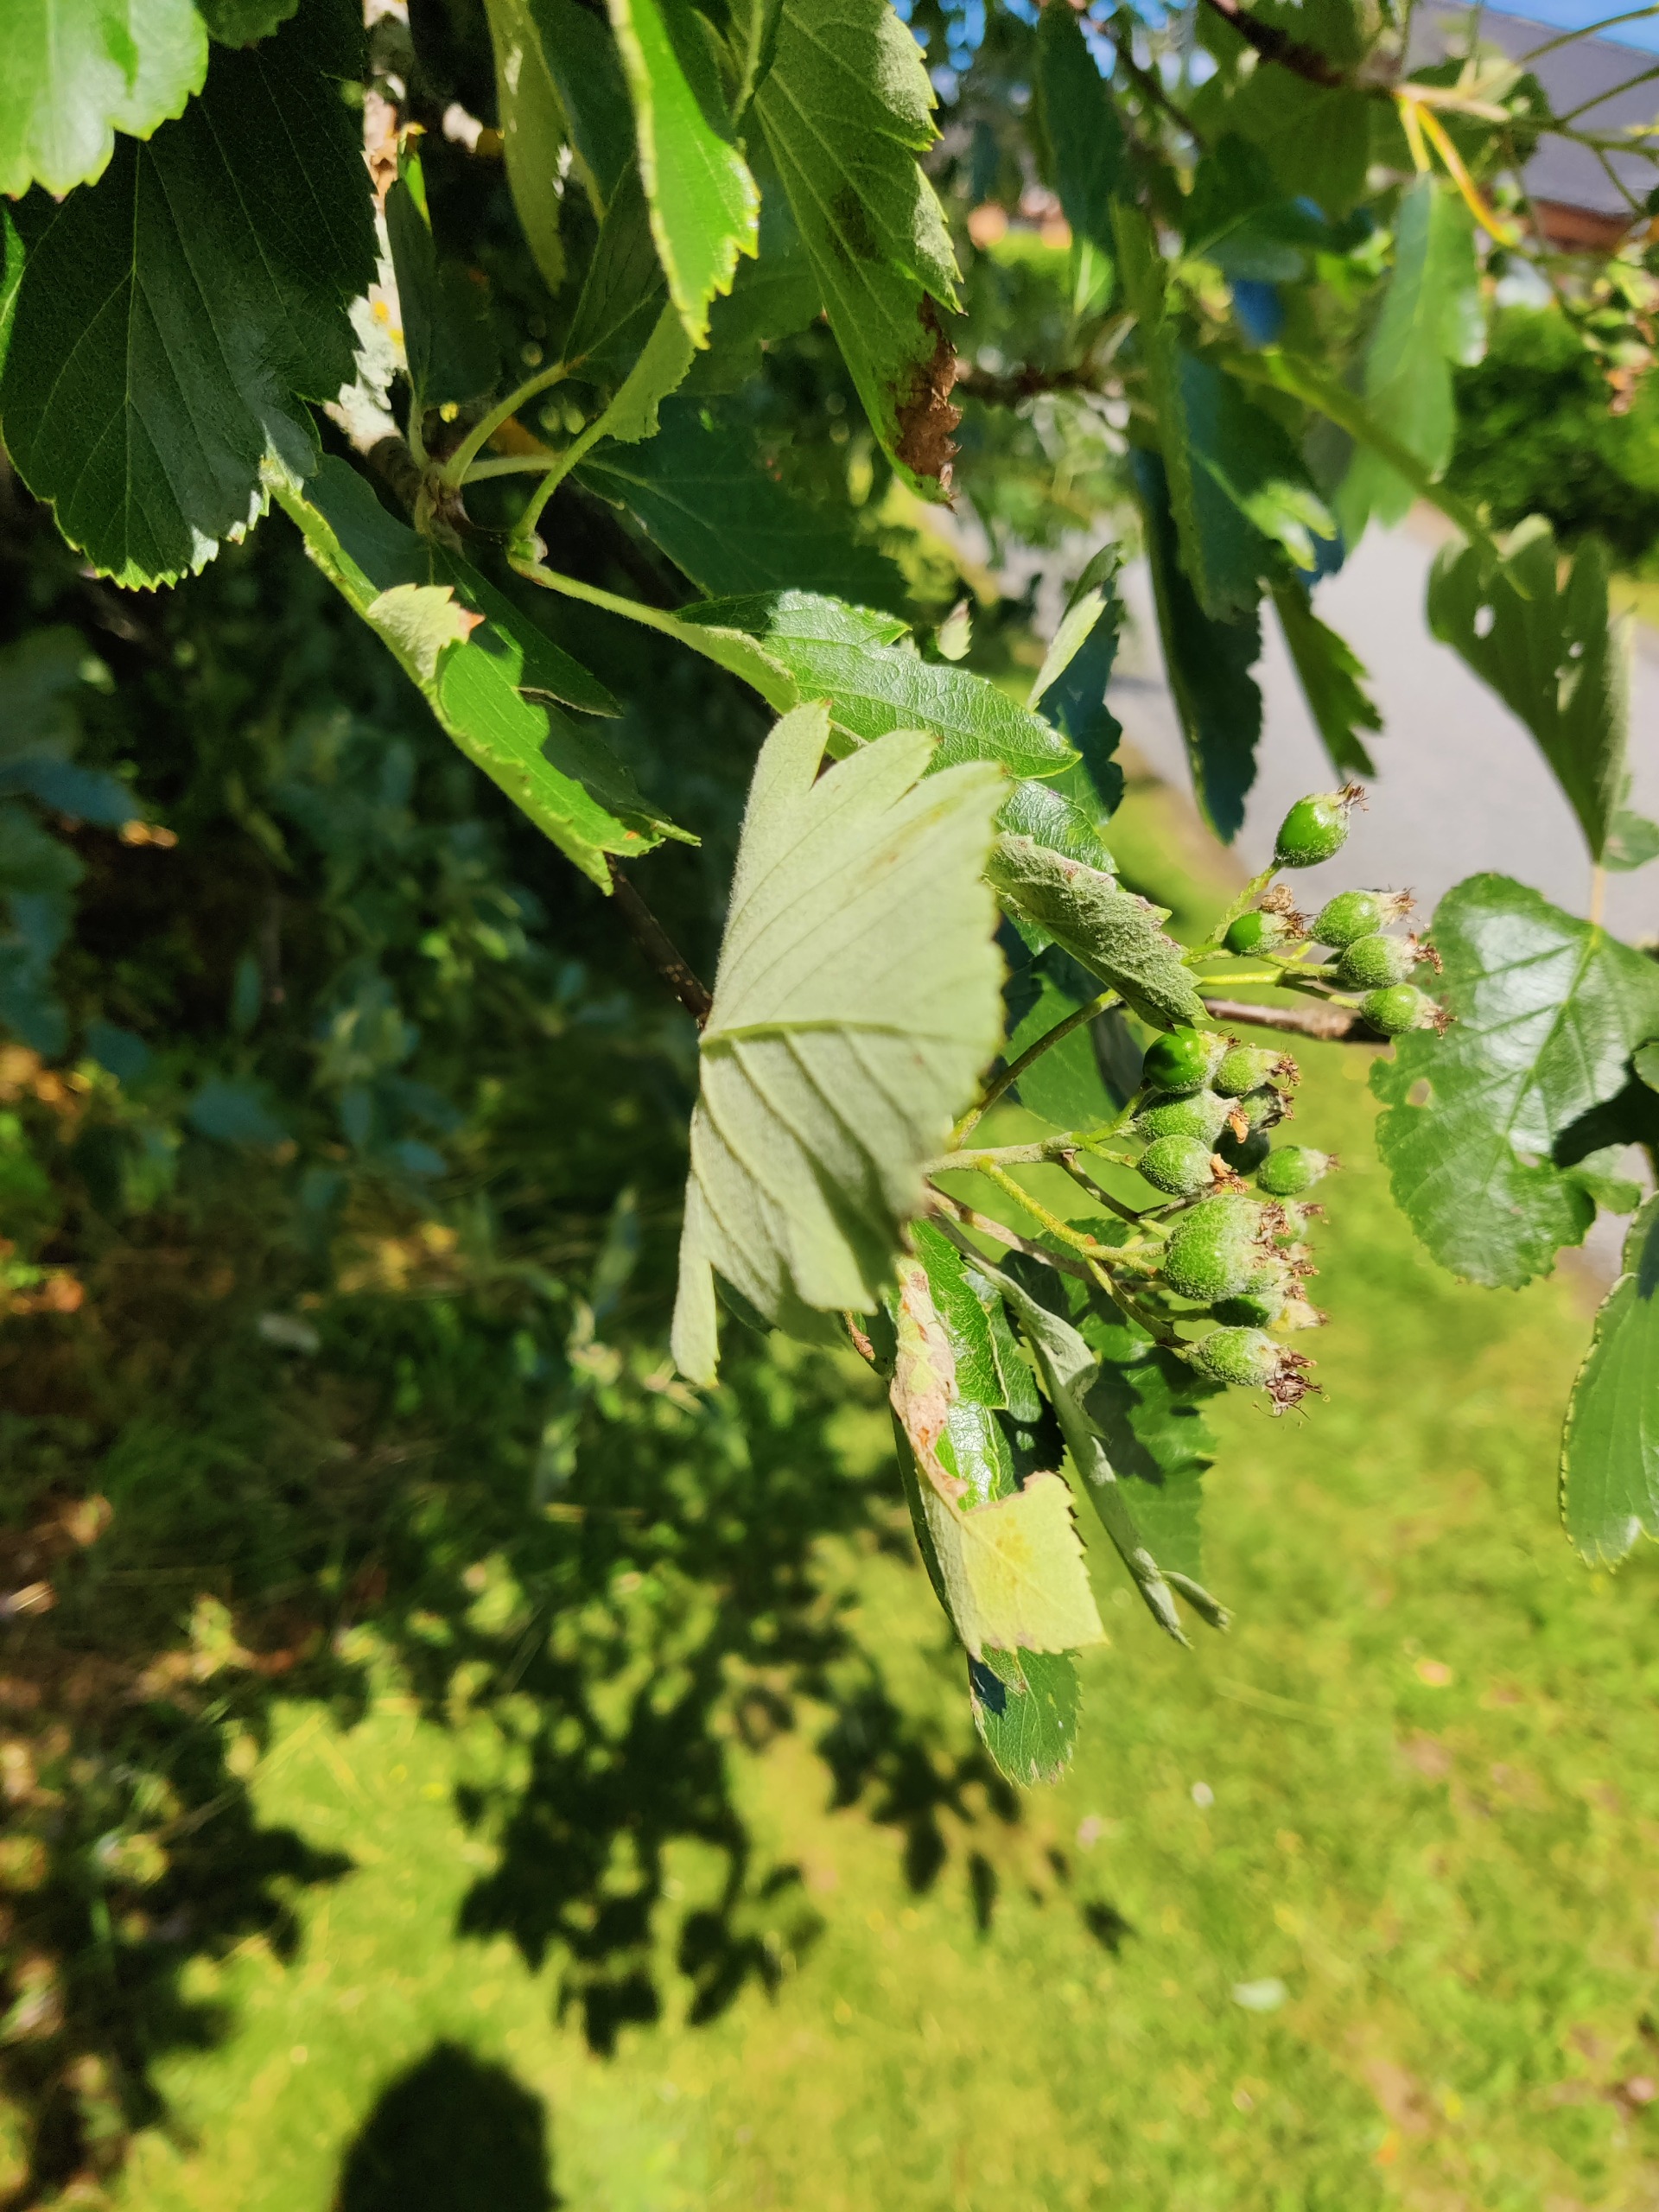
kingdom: Plantae
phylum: Tracheophyta
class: Magnoliopsida
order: Rosales
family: Rosaceae
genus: Scandosorbus
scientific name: Scandosorbus intermedia
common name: Selje-røn
